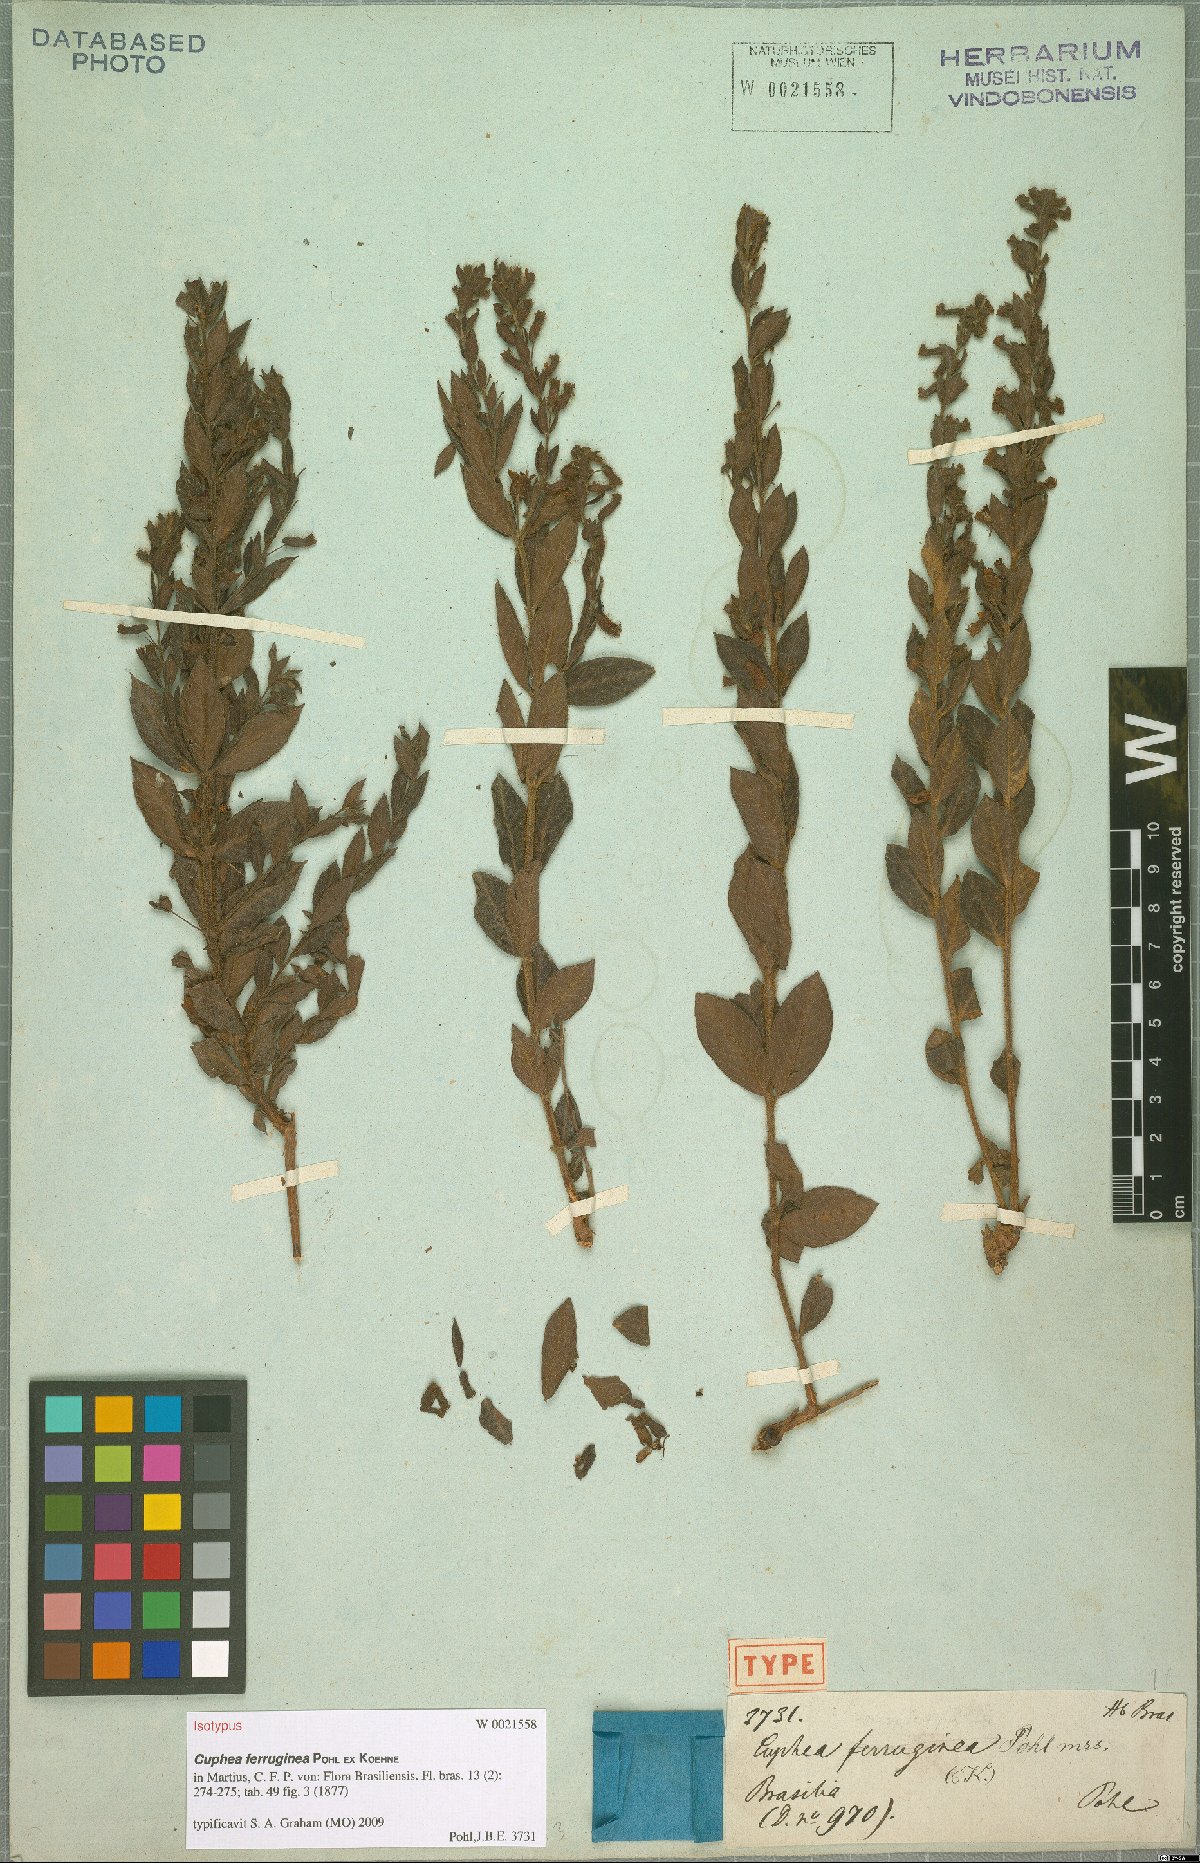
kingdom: Plantae
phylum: Tracheophyta
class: Magnoliopsida
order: Myrtales
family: Lythraceae
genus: Cuphea
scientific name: Cuphea ferruginea
